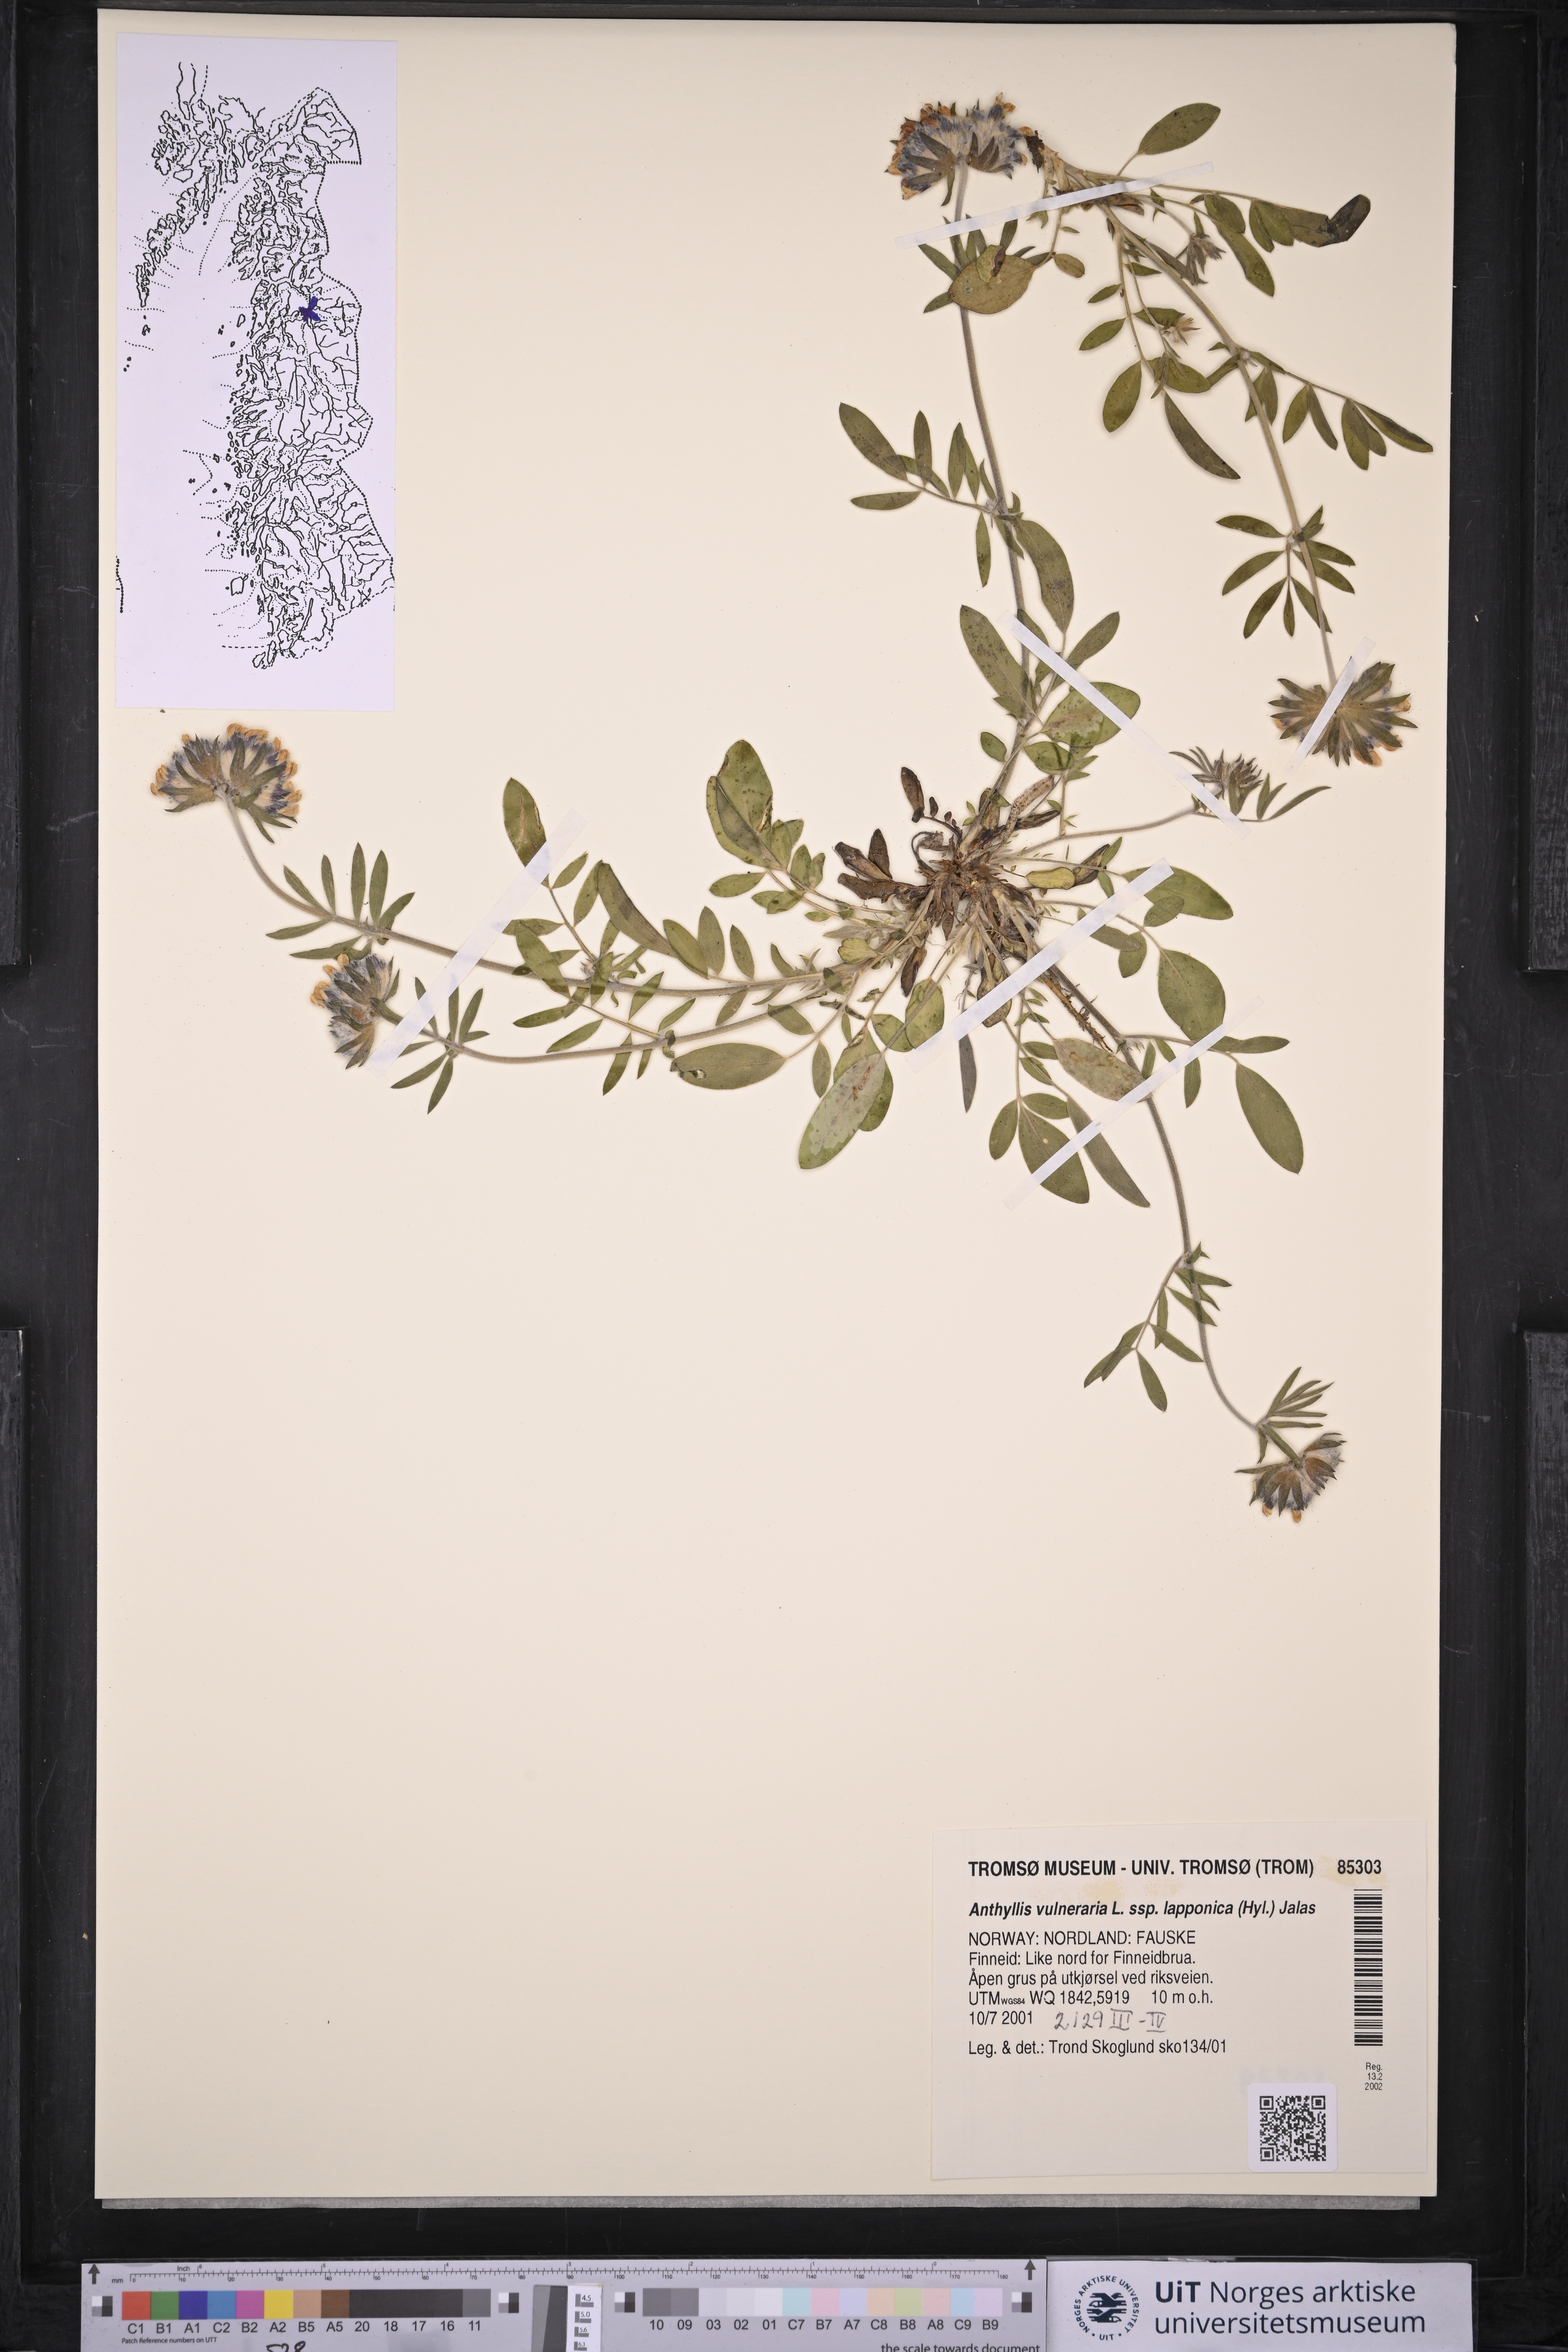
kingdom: Plantae
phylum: Tracheophyta
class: Magnoliopsida
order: Fabales
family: Fabaceae
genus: Anthyllis
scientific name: Anthyllis vulneraria
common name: Kidney vetch
